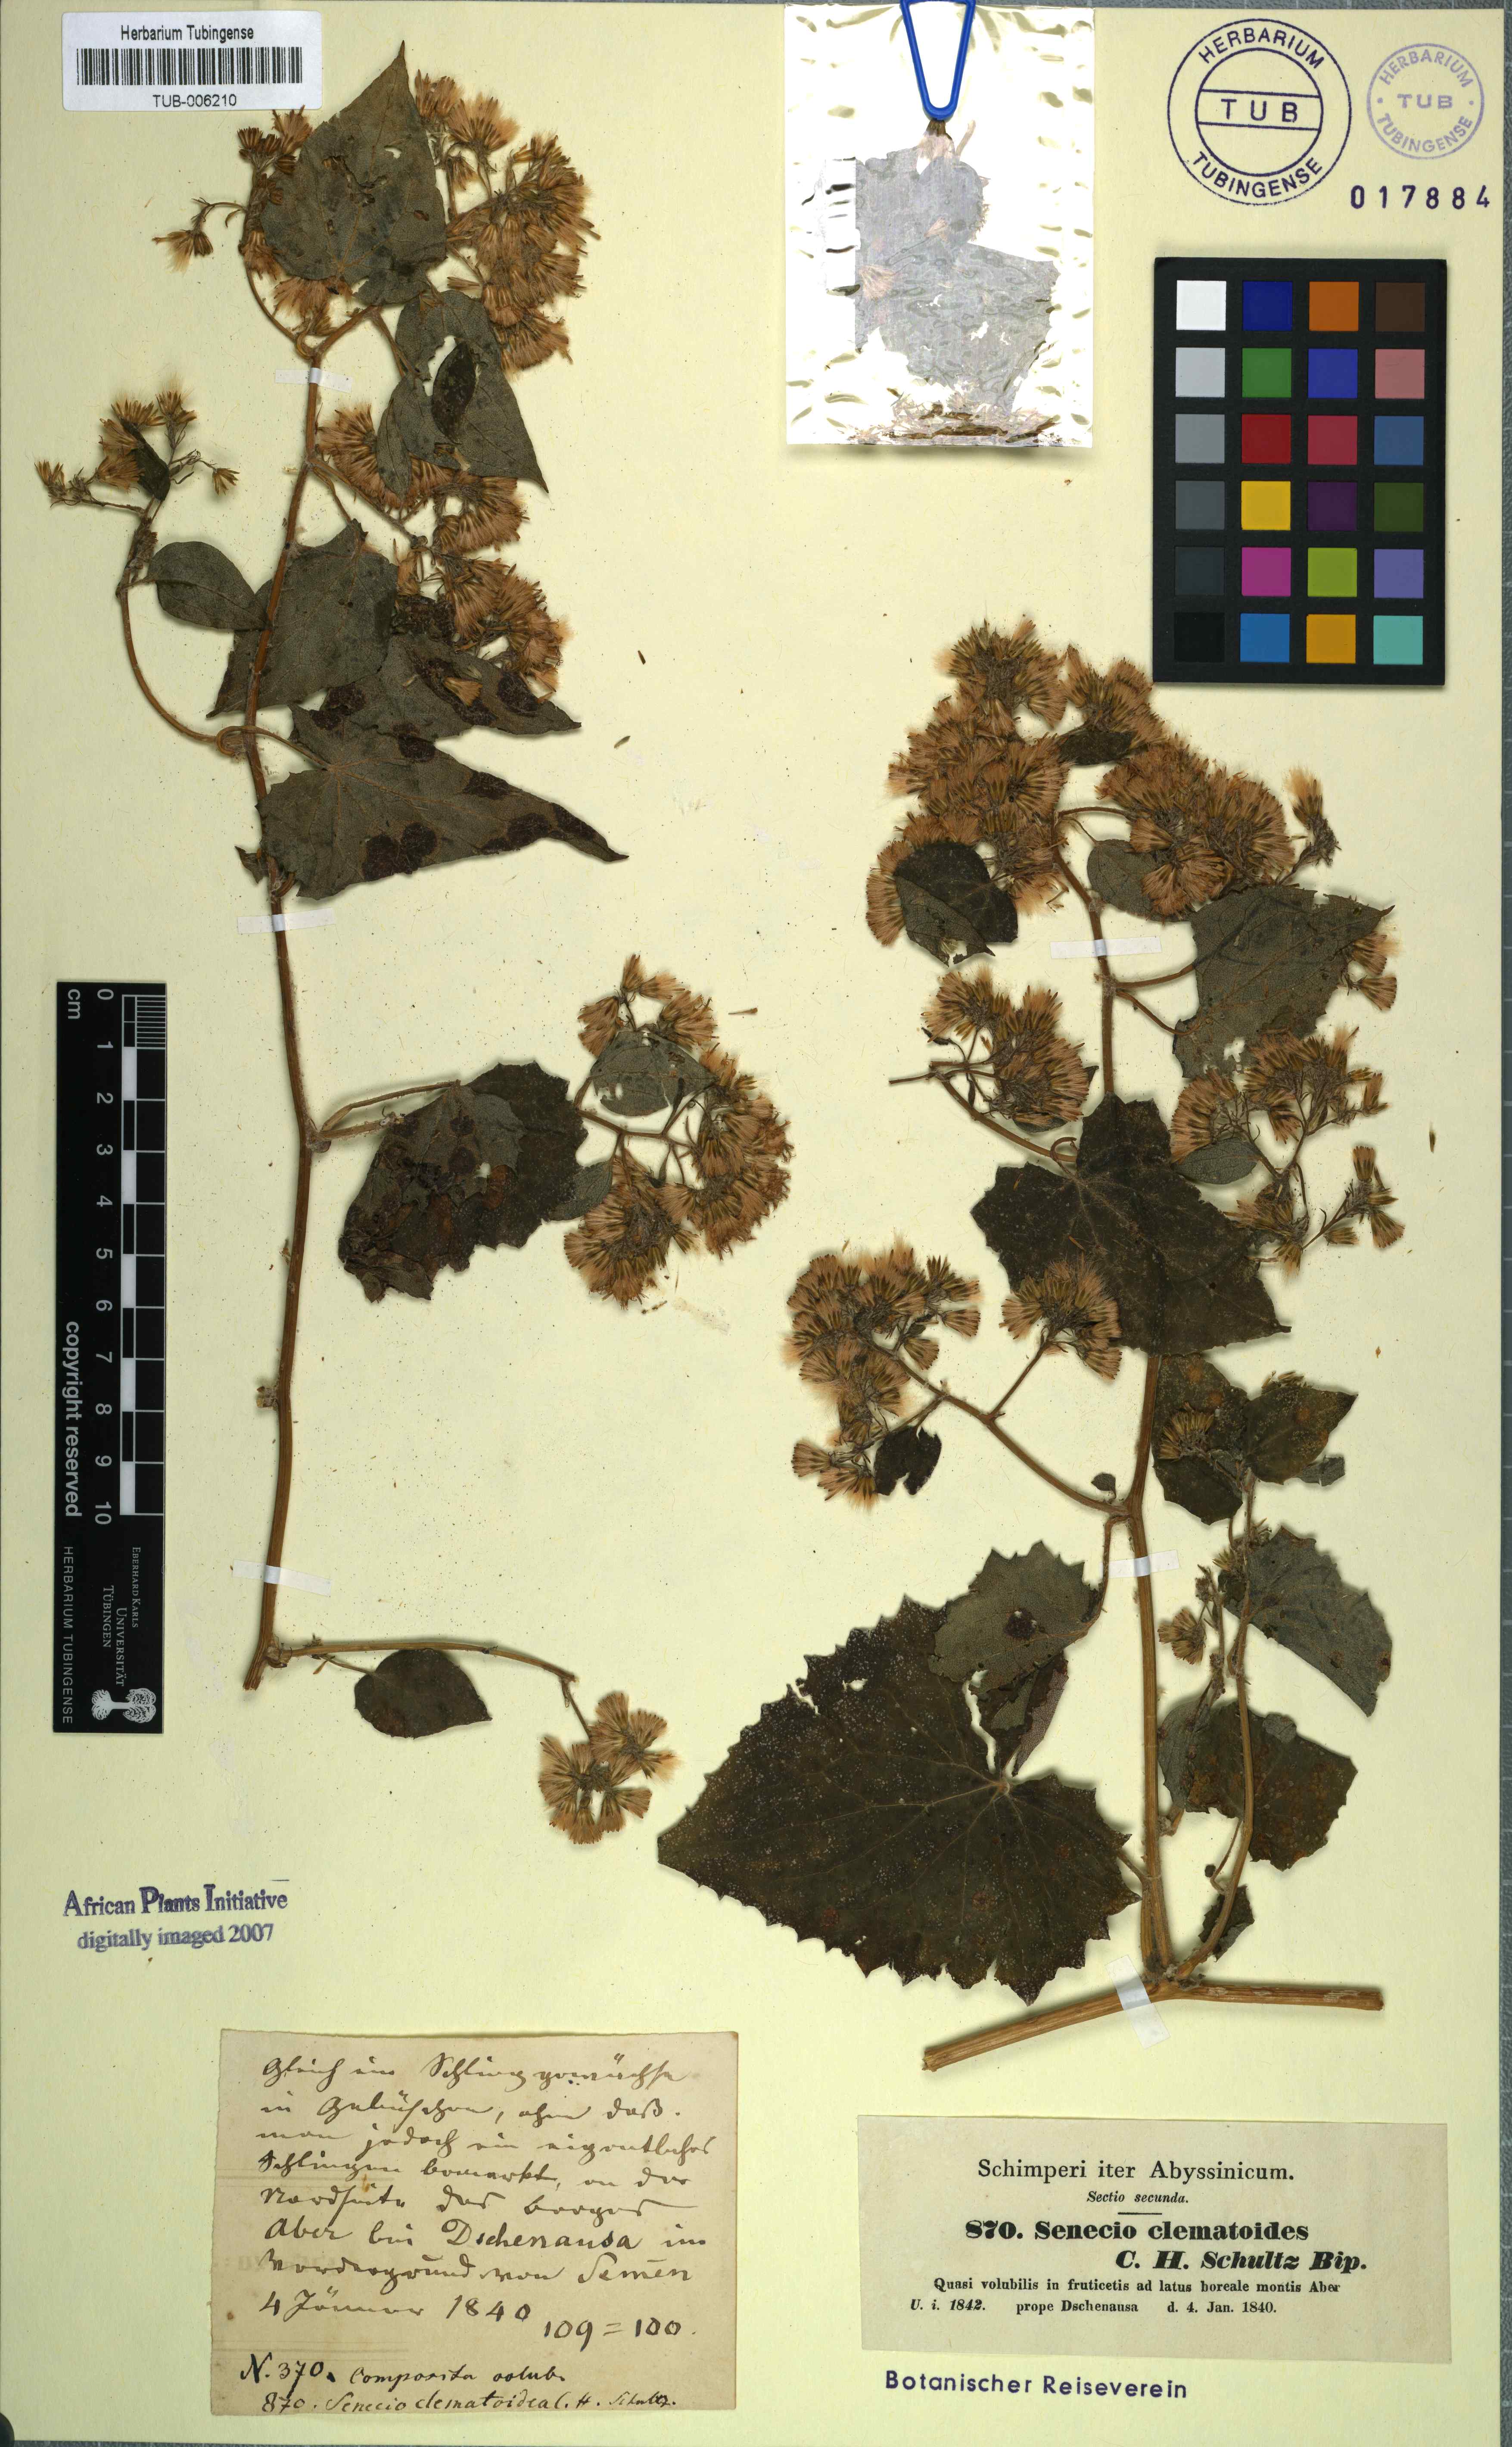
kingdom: Plantae
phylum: Tracheophyta
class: Magnoliopsida
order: Asterales
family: Asteraceae
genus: Mikaniopsis
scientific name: Mikaniopsis clematoides
